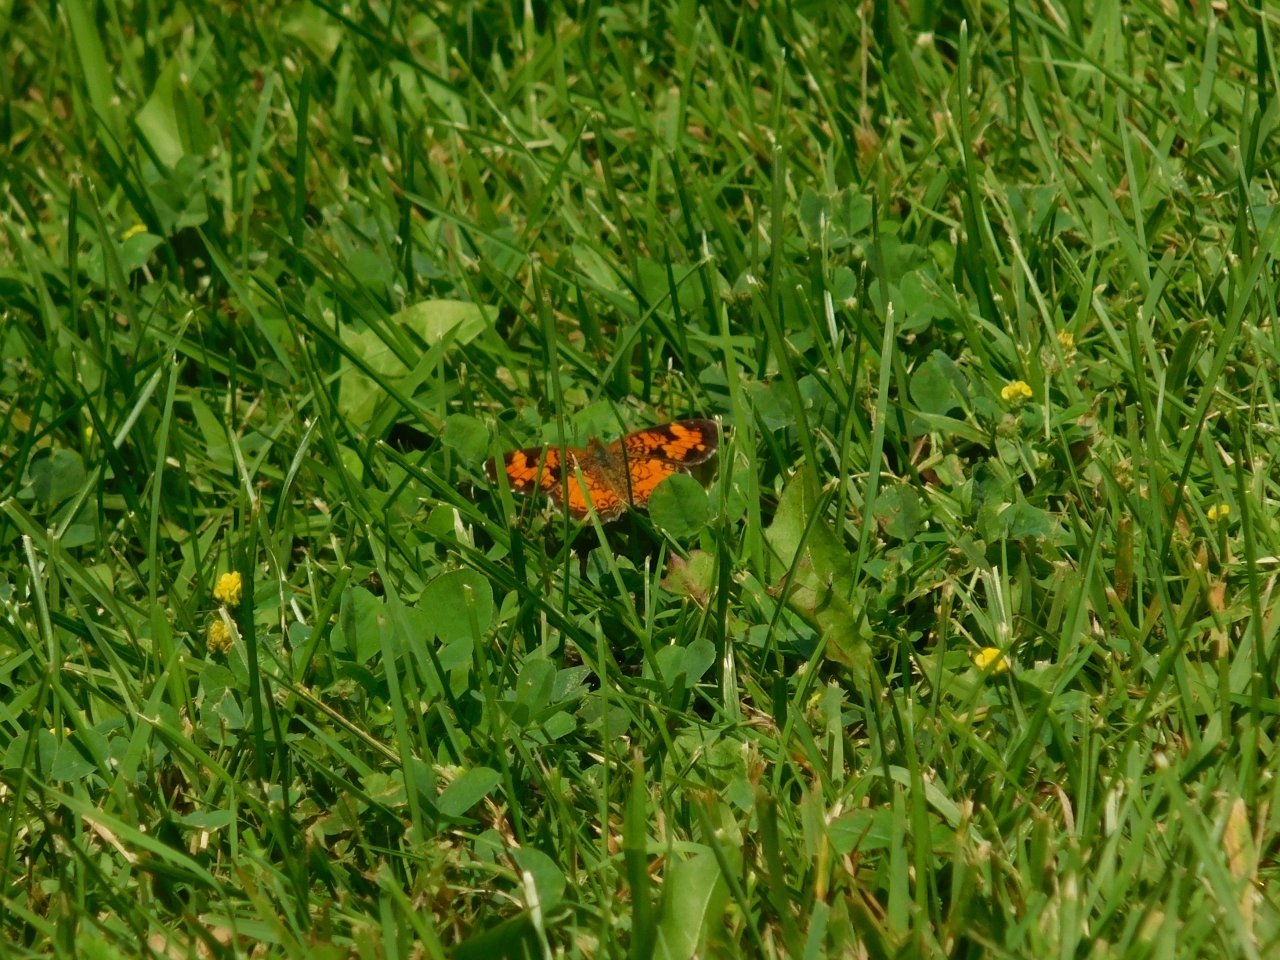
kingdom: Animalia
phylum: Arthropoda
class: Insecta
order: Lepidoptera
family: Nymphalidae
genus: Phyciodes
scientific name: Phyciodes tharos
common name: Pearl Crescent
